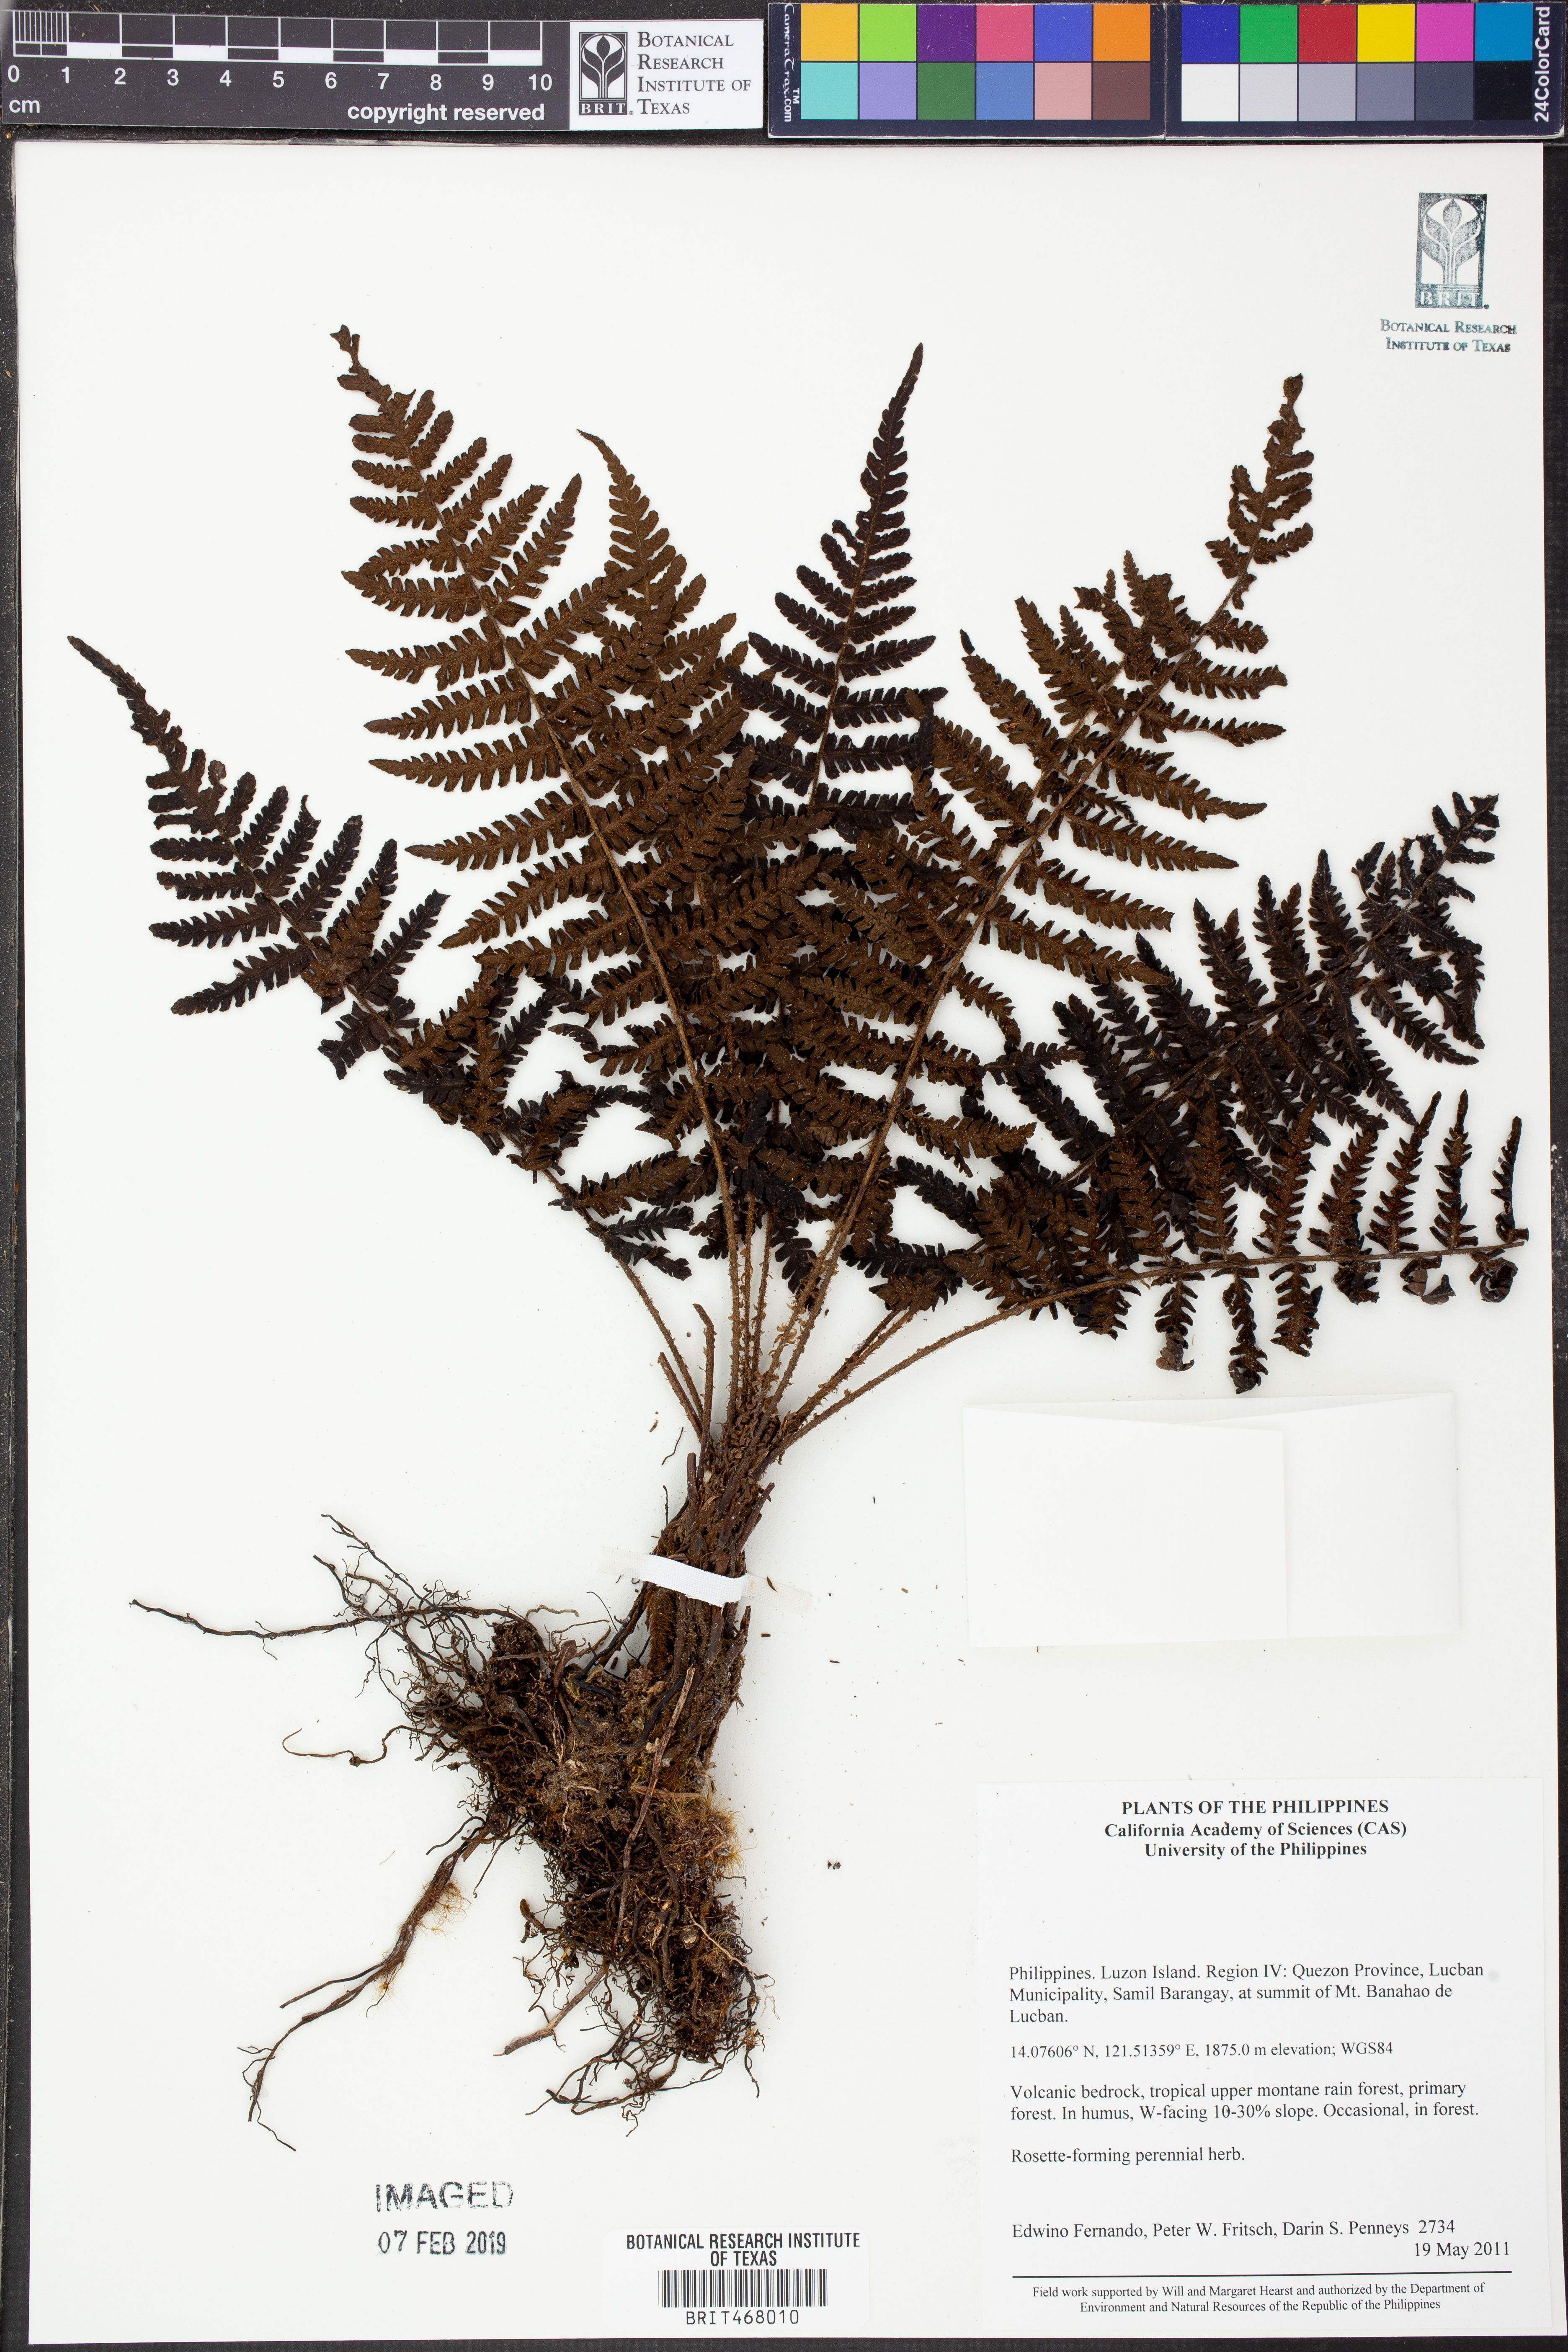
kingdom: Plantae
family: Pteridophyta
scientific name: Pteridophyta
